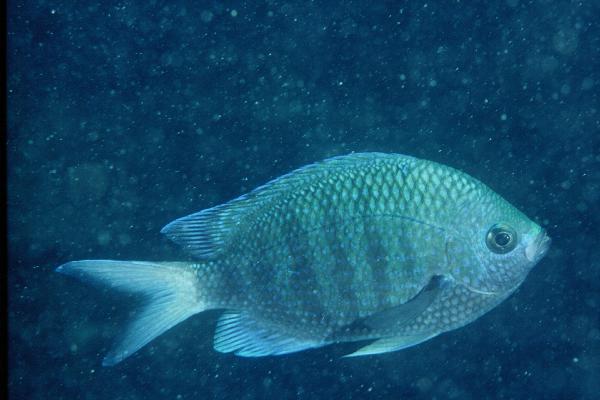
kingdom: Animalia
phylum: Chordata
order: Perciformes
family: Pomacentridae
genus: Abudefduf
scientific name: Abudefduf margariteus
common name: Pearly sergeant
